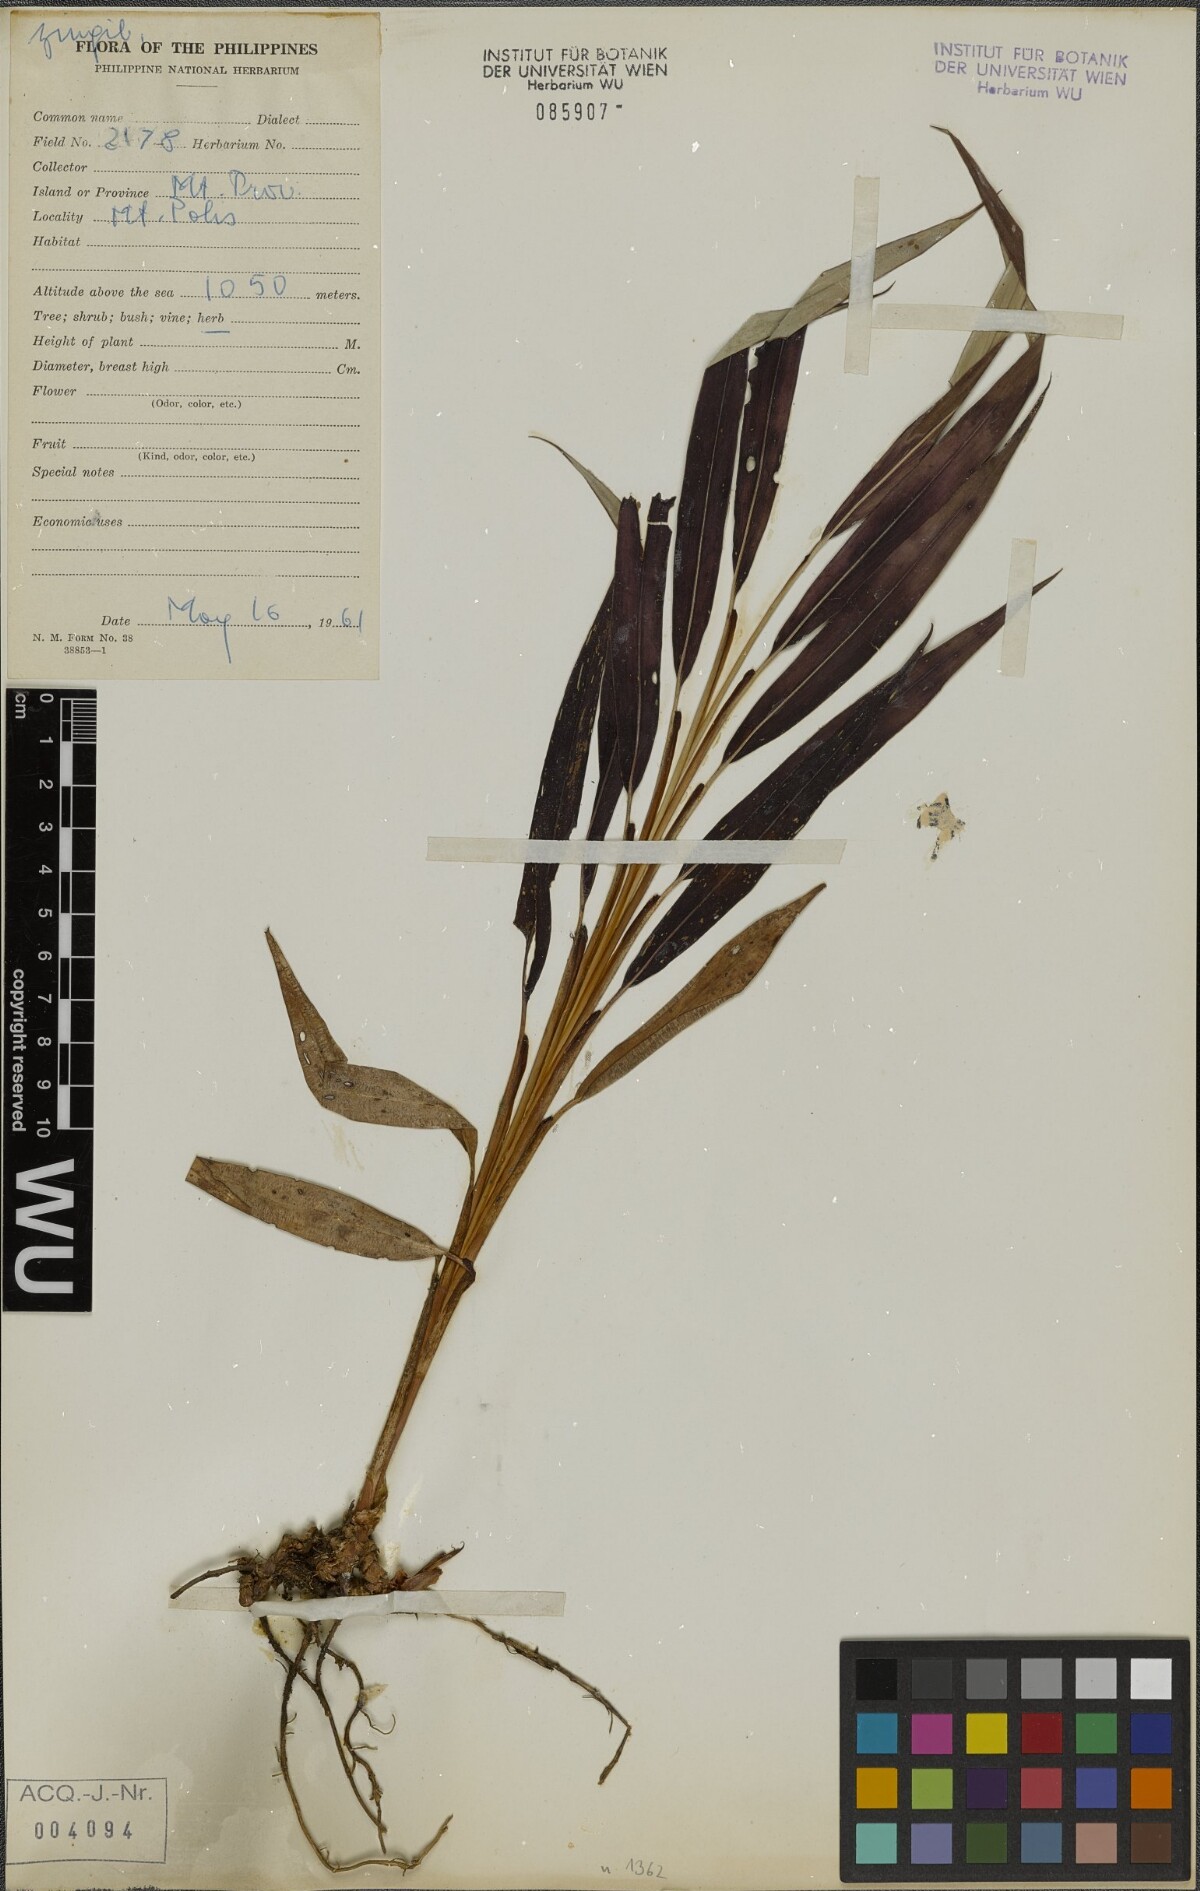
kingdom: Plantae
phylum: Tracheophyta
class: Liliopsida
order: Zingiberales
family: Zingiberaceae
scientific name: Zingiberaceae
